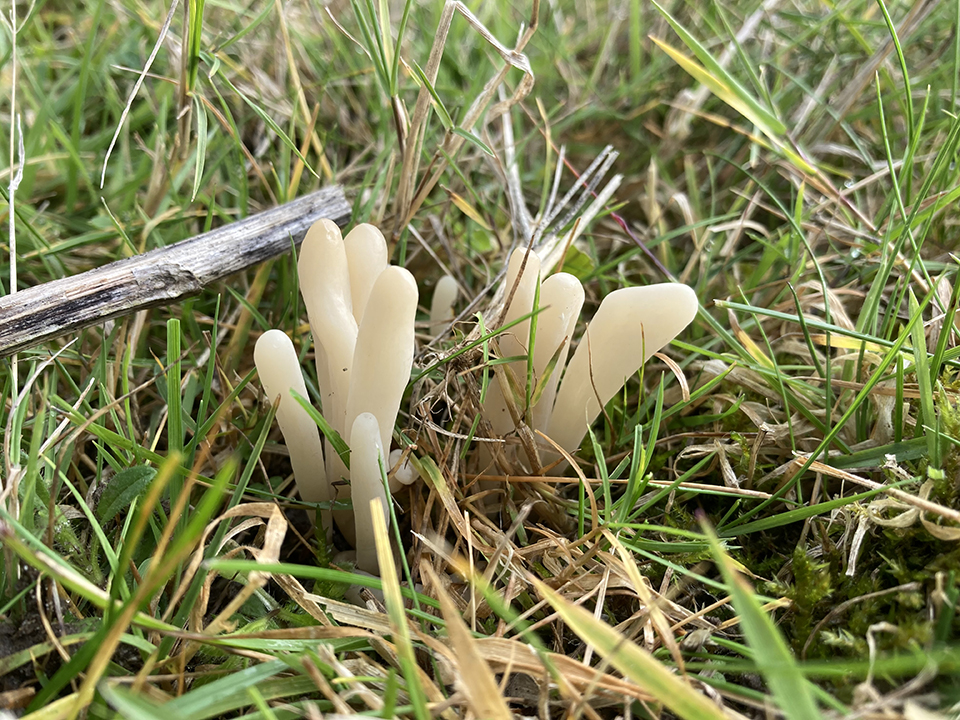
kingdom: Fungi
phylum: Basidiomycota
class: Agaricomycetes
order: Agaricales
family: Clavariaceae
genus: Clavaria
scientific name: Clavaria tenuipes
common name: isabellafarvet køllesvamp
